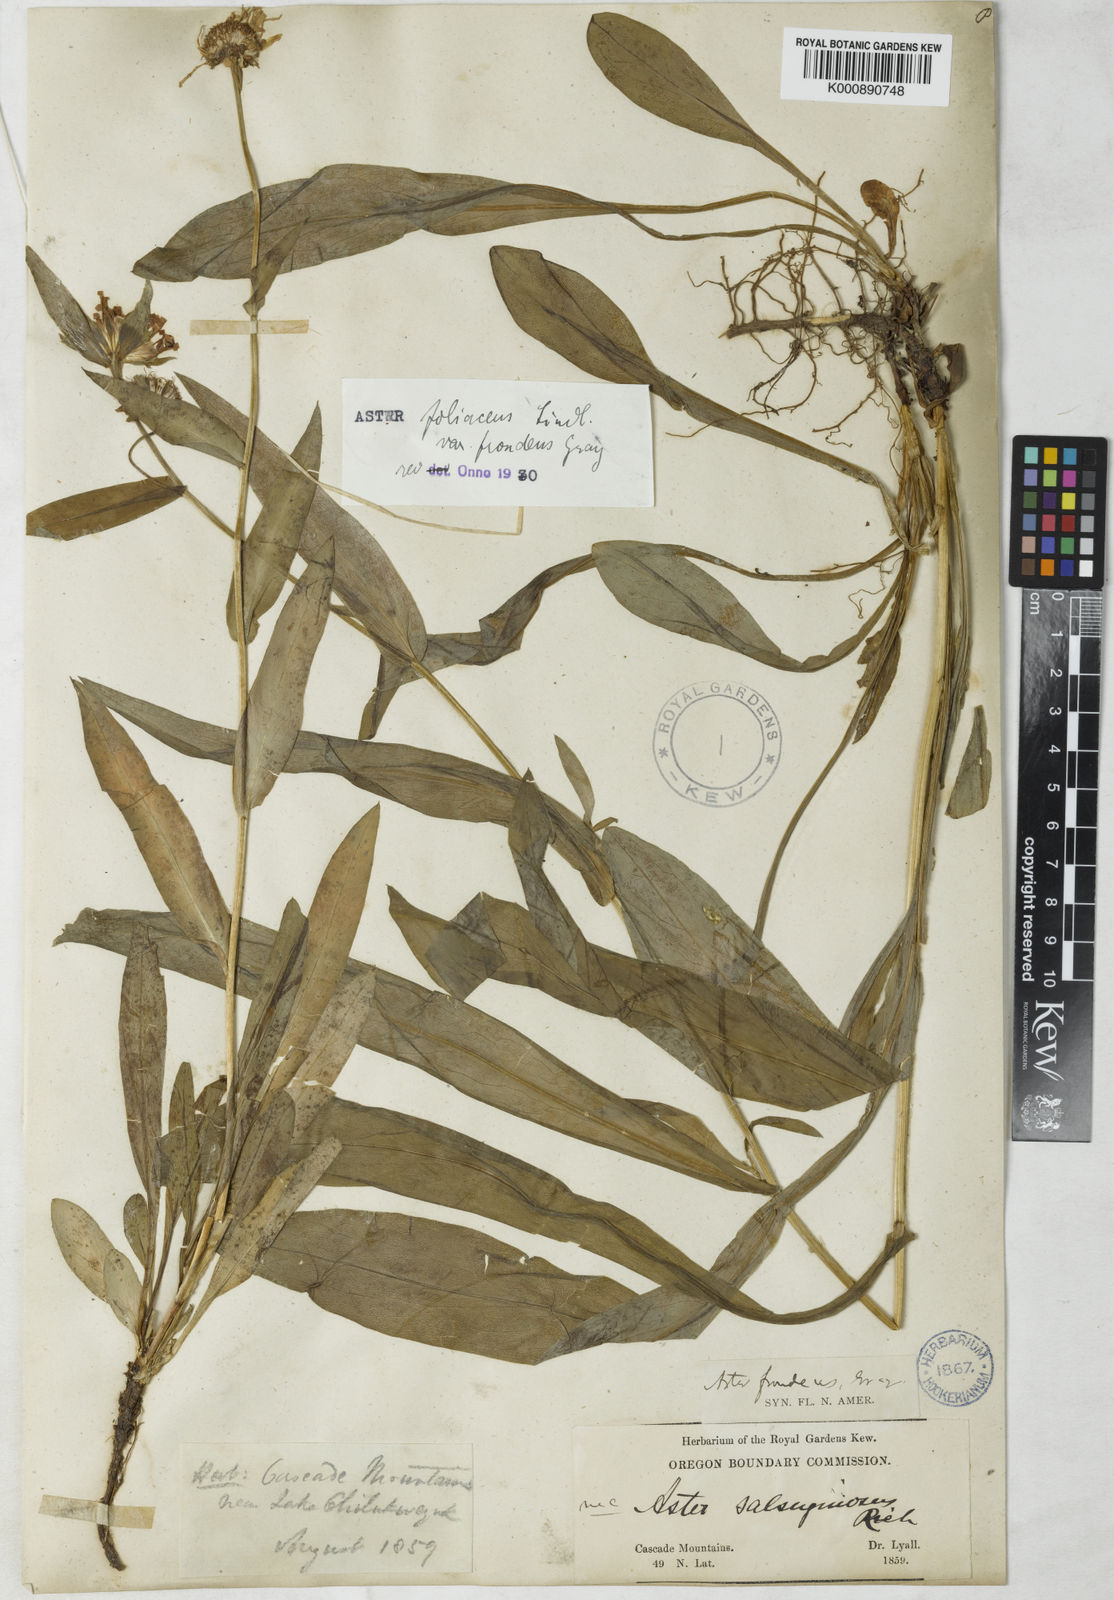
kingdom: Plantae
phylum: Tracheophyta
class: Magnoliopsida
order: Asterales
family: Asteraceae
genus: Aster
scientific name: Aster
